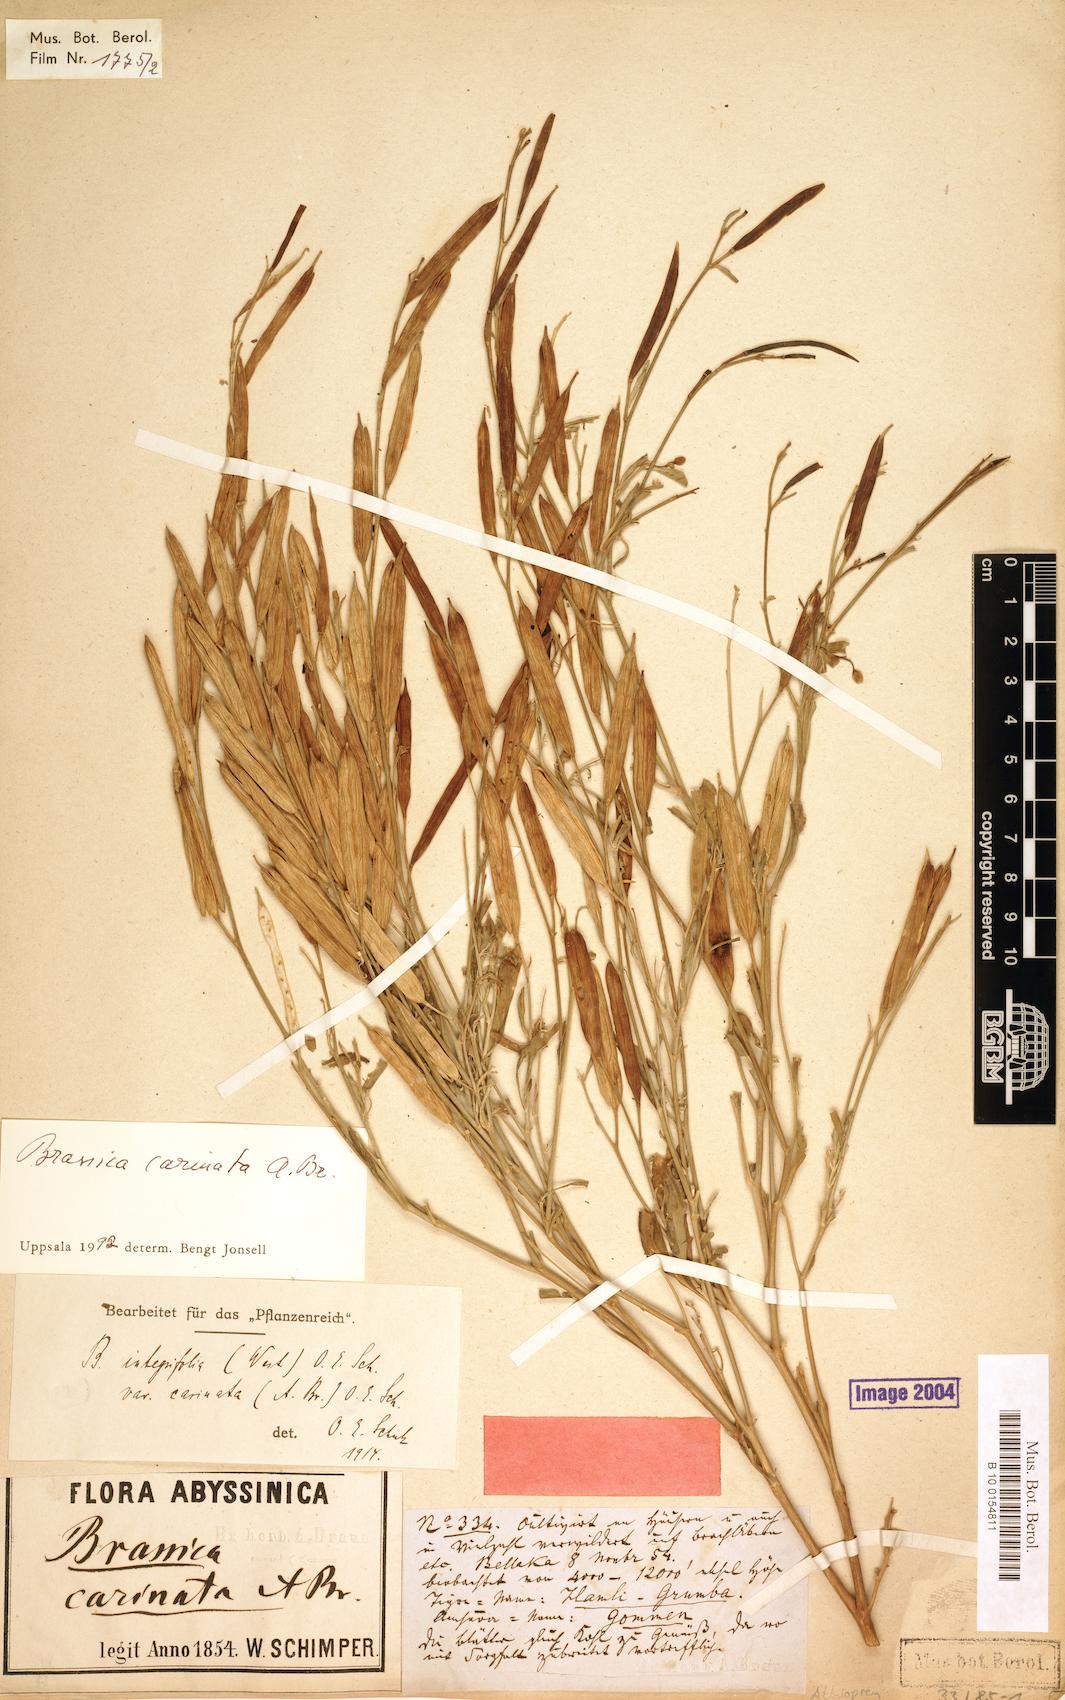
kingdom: Plantae
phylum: Tracheophyta
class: Magnoliopsida
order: Brassicales
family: Brassicaceae
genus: Brassica
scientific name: Brassica carinata
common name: Ethiopian rape
